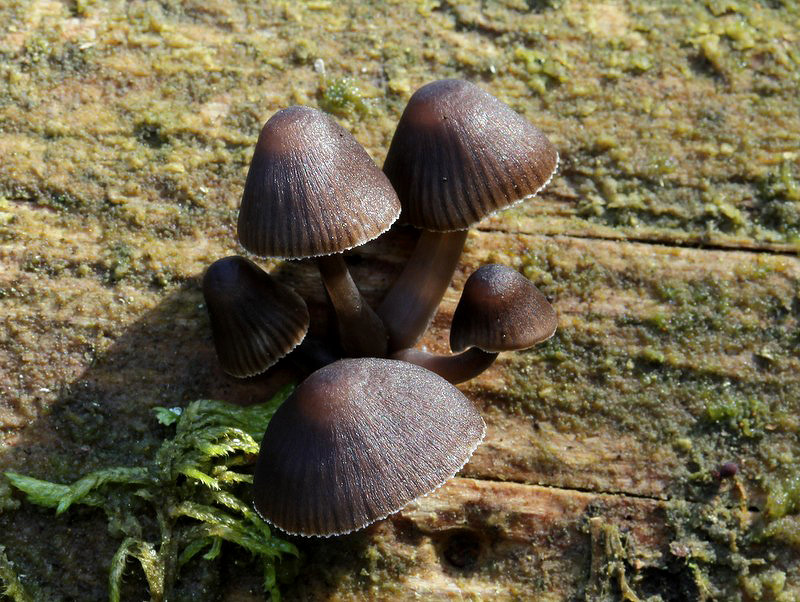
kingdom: Fungi
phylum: Basidiomycota
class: Agaricomycetes
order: Agaricales
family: Mycenaceae
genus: Mycena
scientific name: Mycena stipata
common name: stinkende huesvamp
